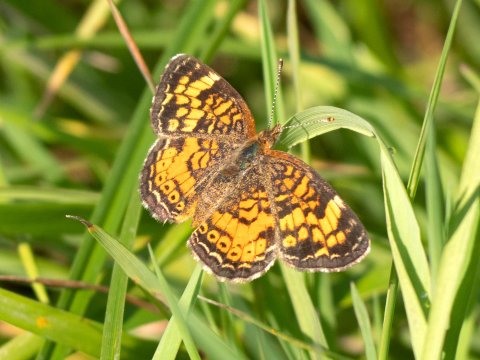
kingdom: Animalia
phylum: Arthropoda
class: Insecta
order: Lepidoptera
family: Nymphalidae
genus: Phyciodes
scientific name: Phyciodes
